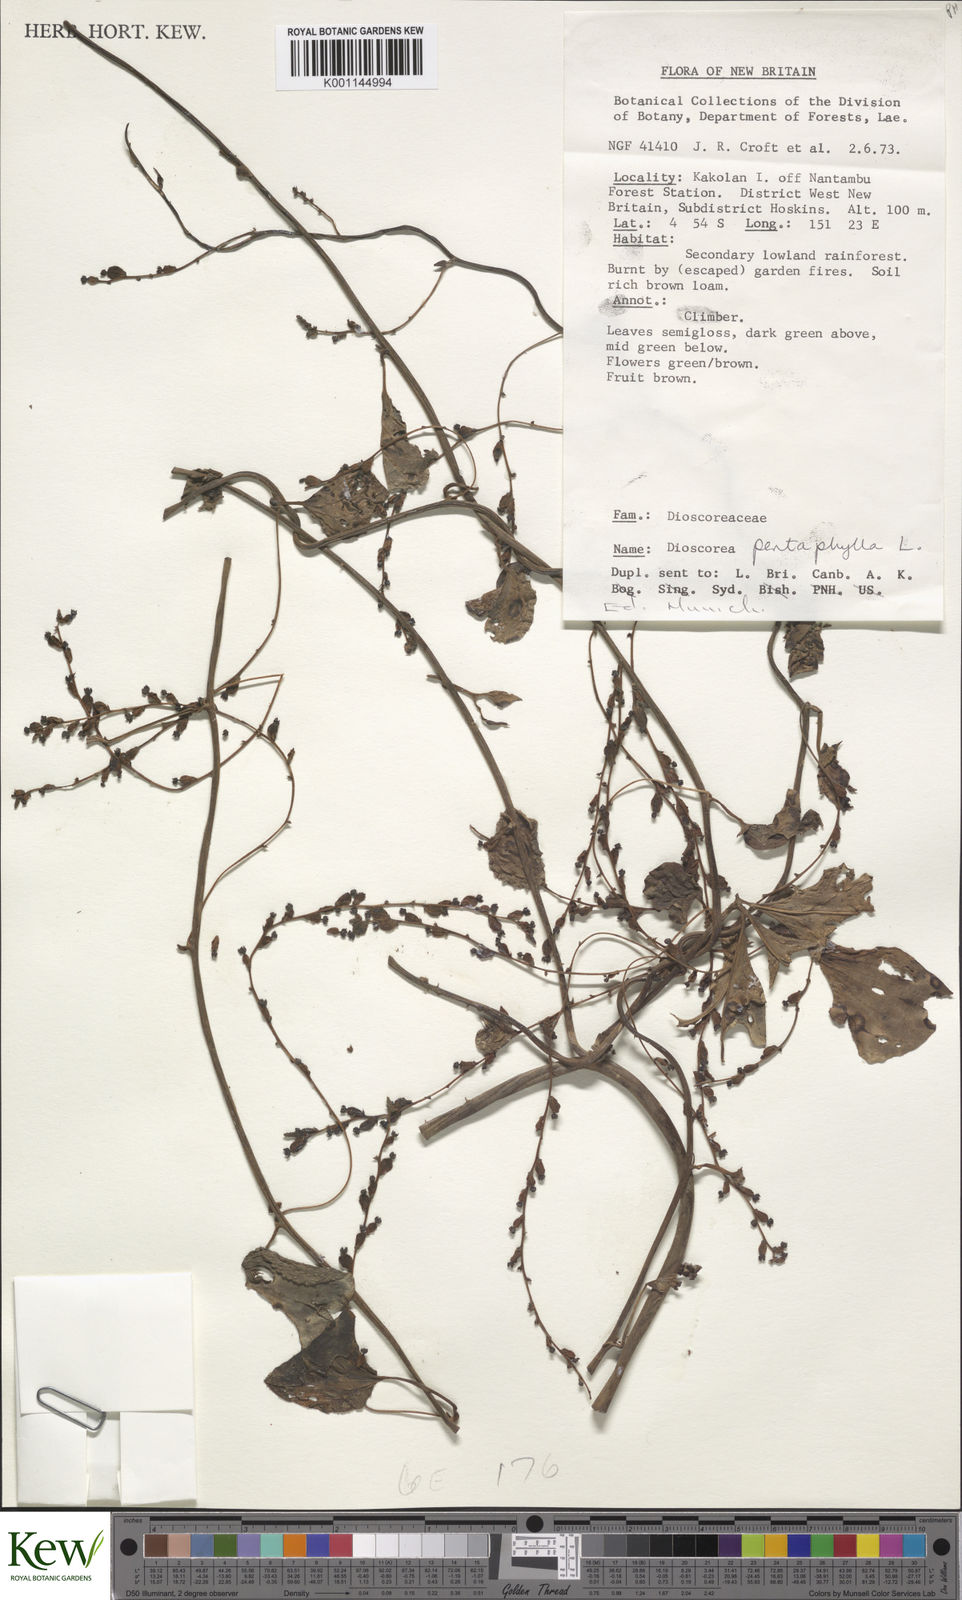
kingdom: Plantae
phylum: Tracheophyta
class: Liliopsida
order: Dioscoreales
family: Dioscoreaceae
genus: Dioscorea
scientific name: Dioscorea pentaphylla
